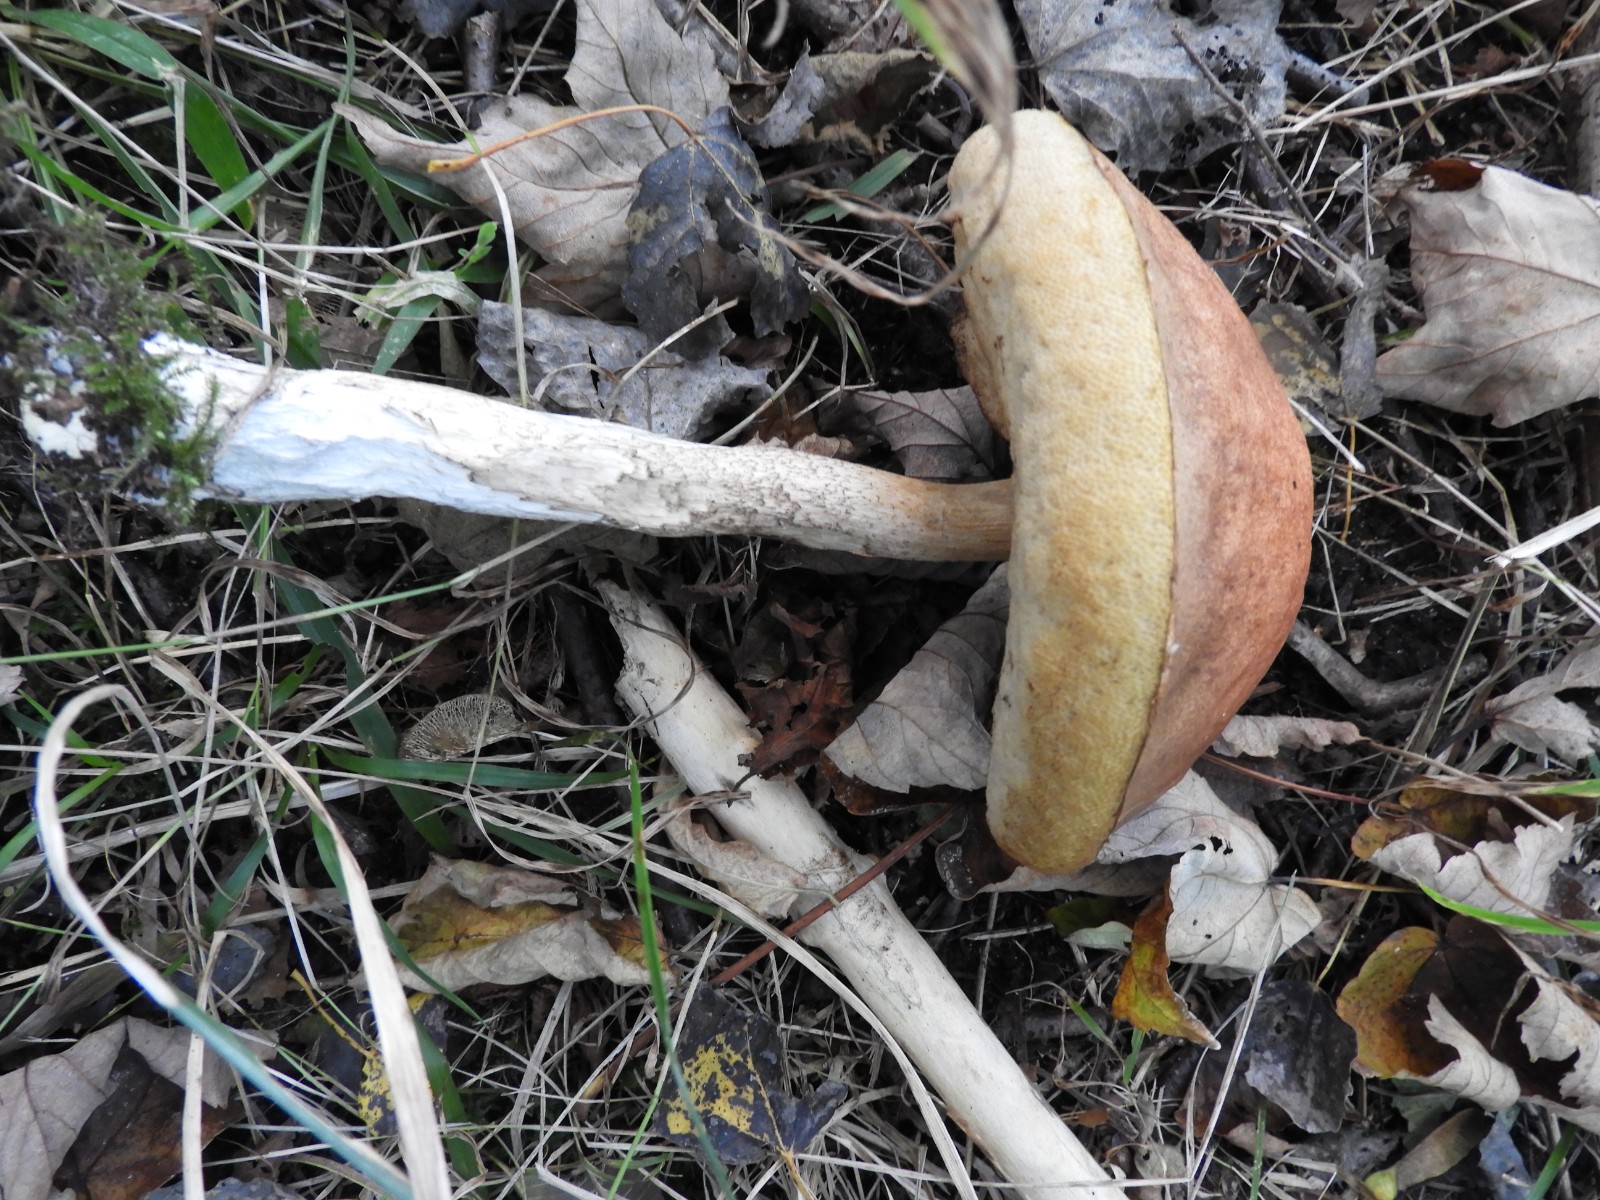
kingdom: Fungi
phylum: Basidiomycota
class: Agaricomycetes
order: Boletales
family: Boletaceae
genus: Leccinum
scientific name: Leccinum
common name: skælrørhat
